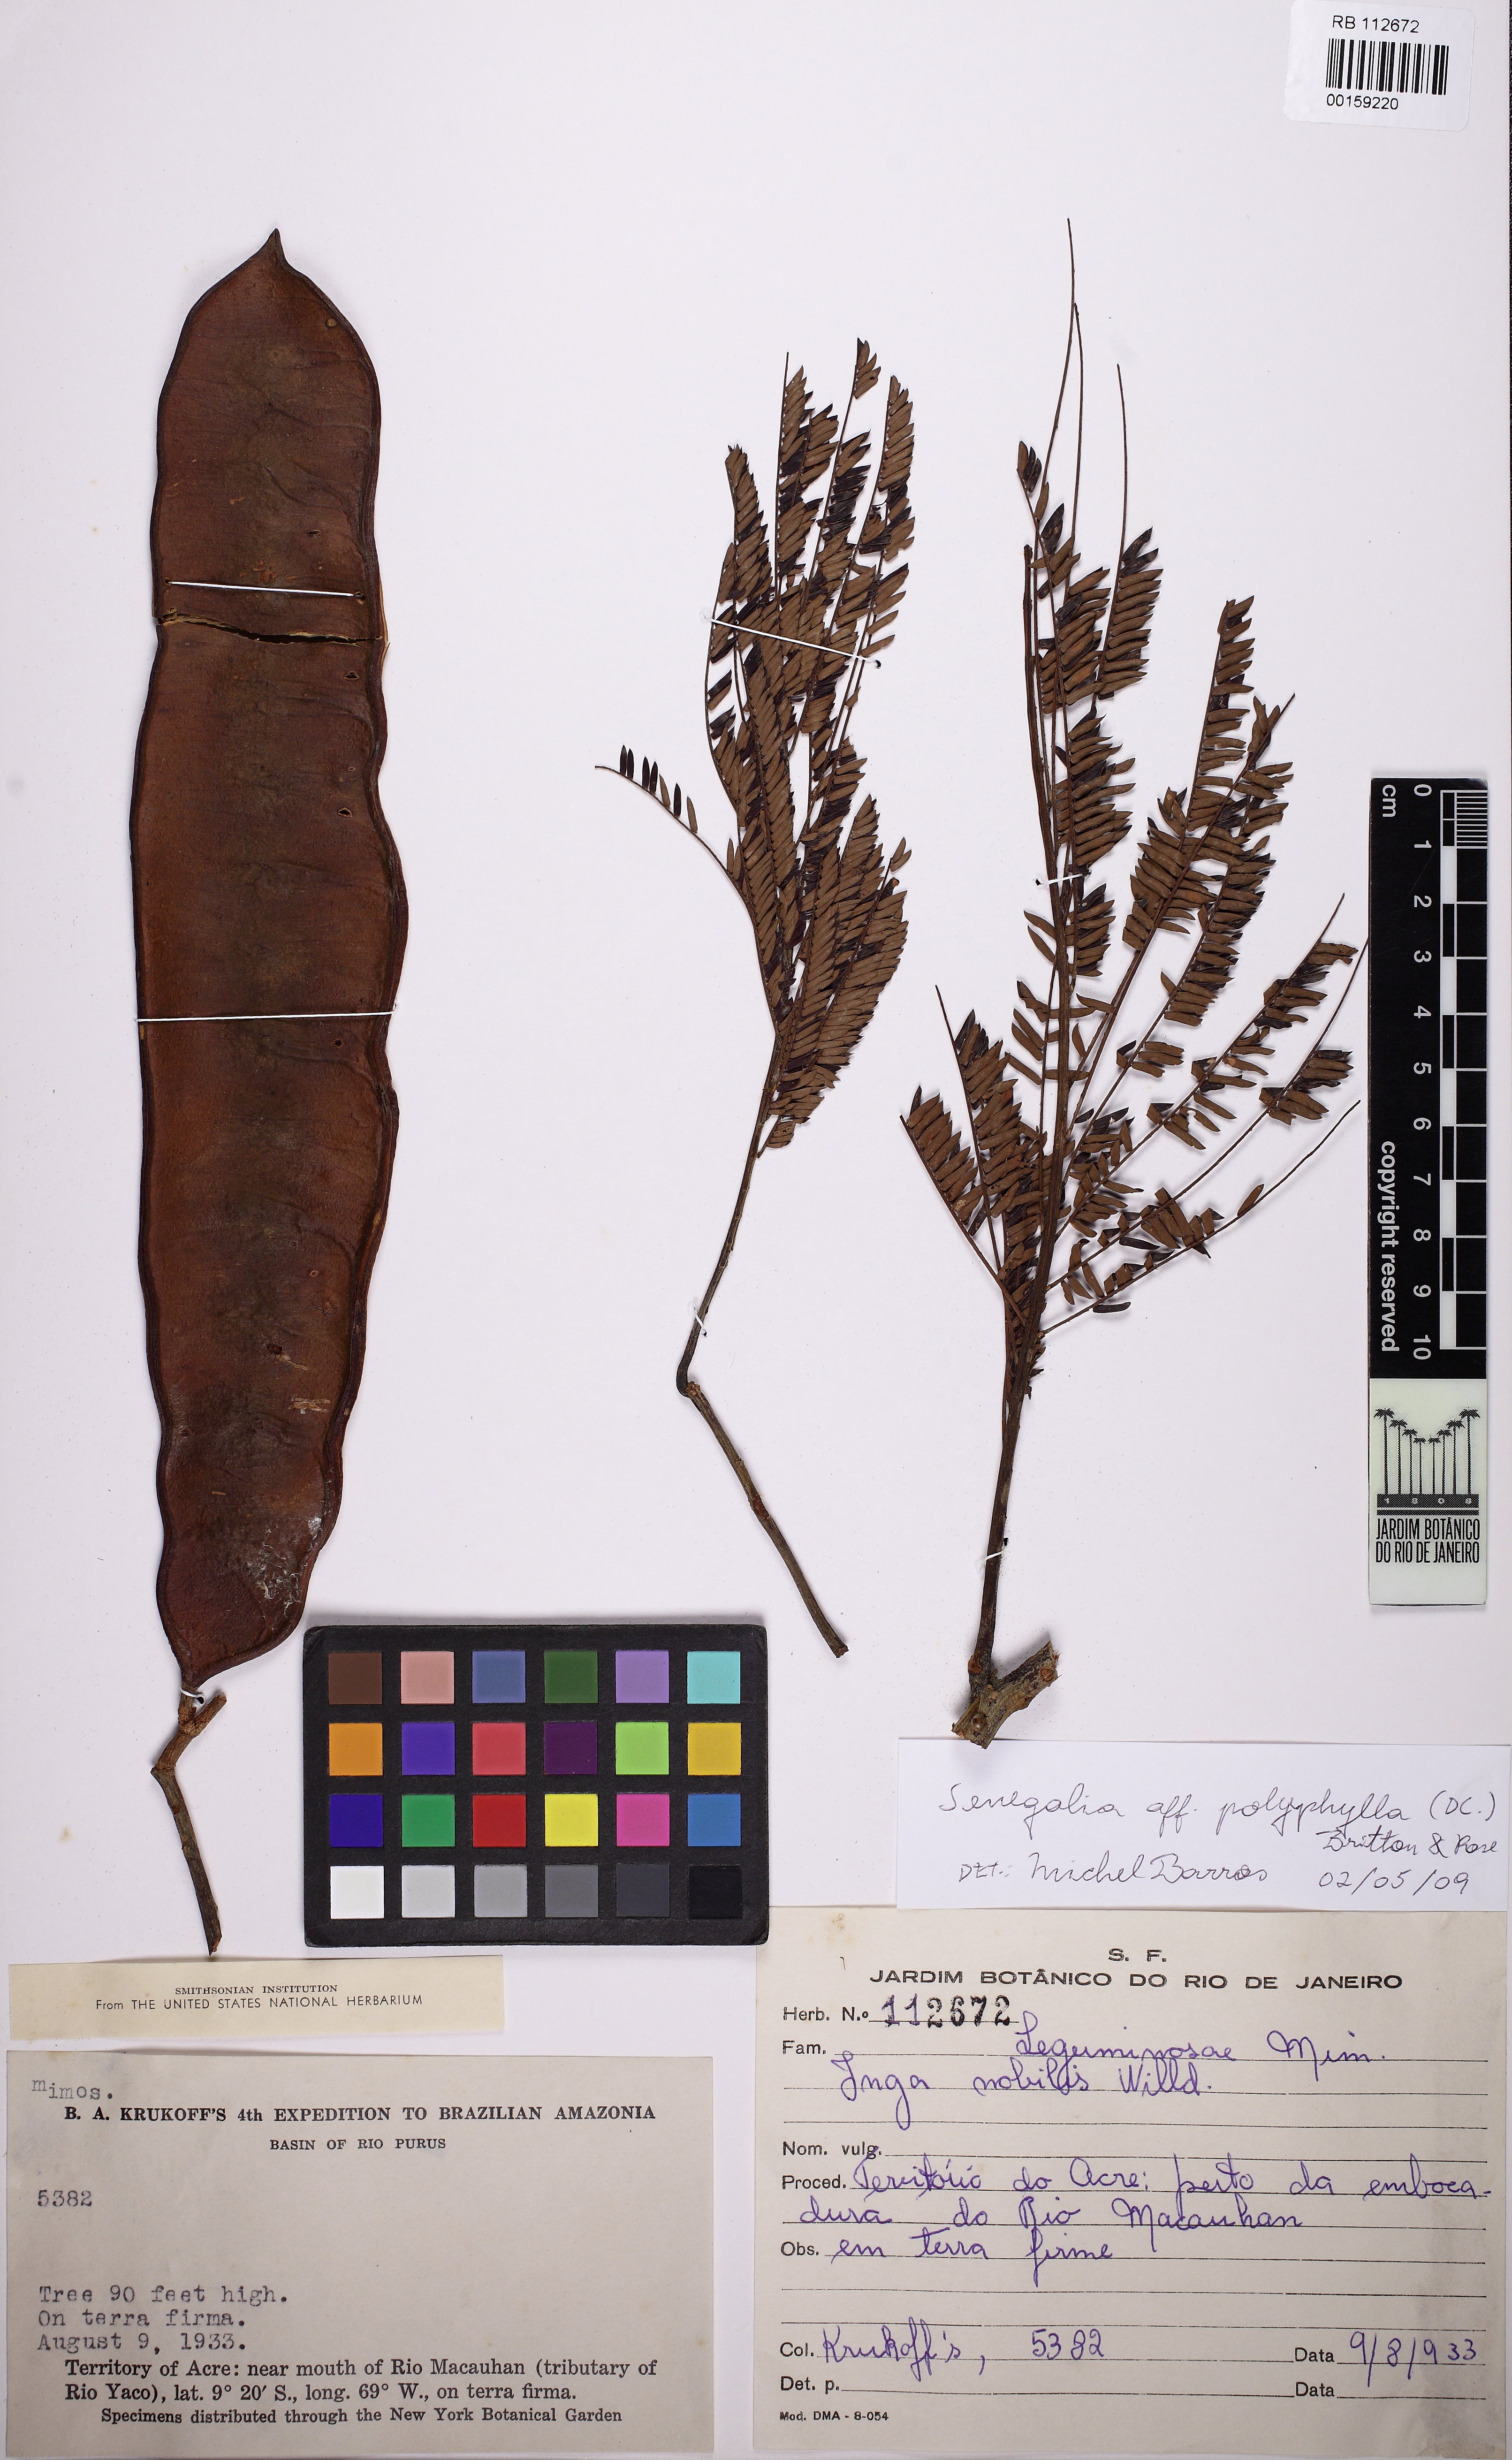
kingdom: Plantae
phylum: Tracheophyta
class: Magnoliopsida
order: Fabales
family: Fabaceae
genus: Senegalia
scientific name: Senegalia polyphylla
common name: White-tamarind
